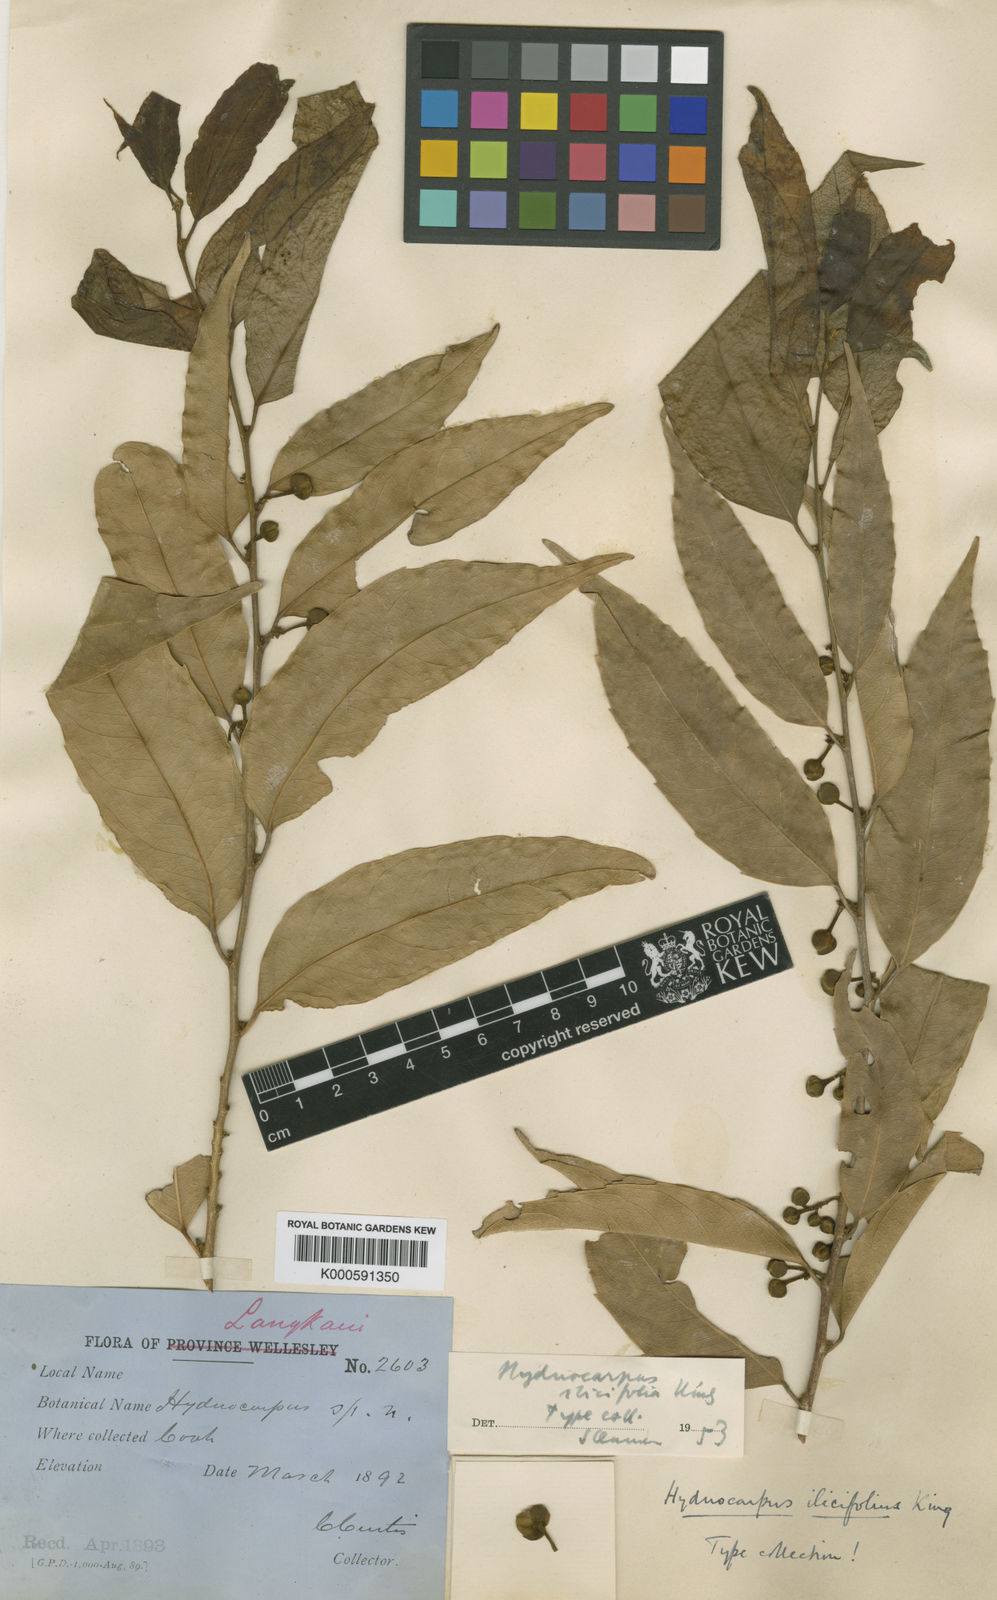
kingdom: Plantae
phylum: Tracheophyta
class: Magnoliopsida
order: Malpighiales
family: Achariaceae
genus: Hydnocarpus
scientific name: Hydnocarpus ilicifolius
